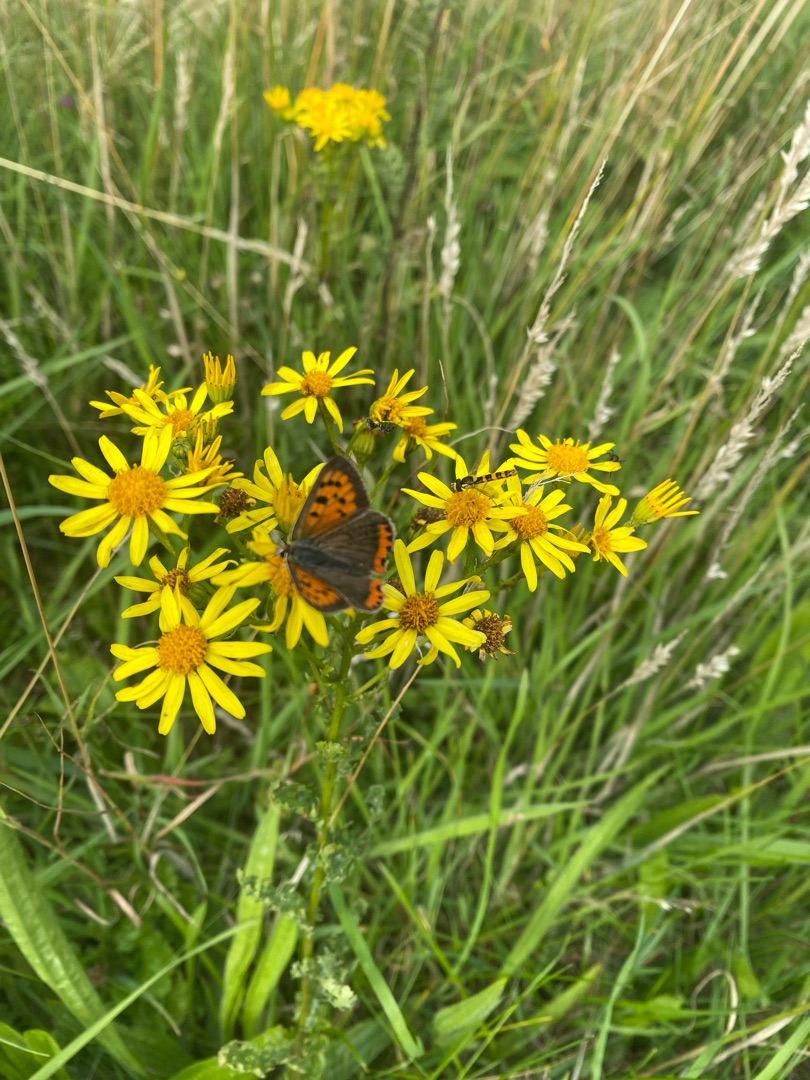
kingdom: Animalia
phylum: Arthropoda
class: Insecta
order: Lepidoptera
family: Lycaenidae
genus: Lycaena
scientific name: Lycaena phlaeas
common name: Lille ildfugl
